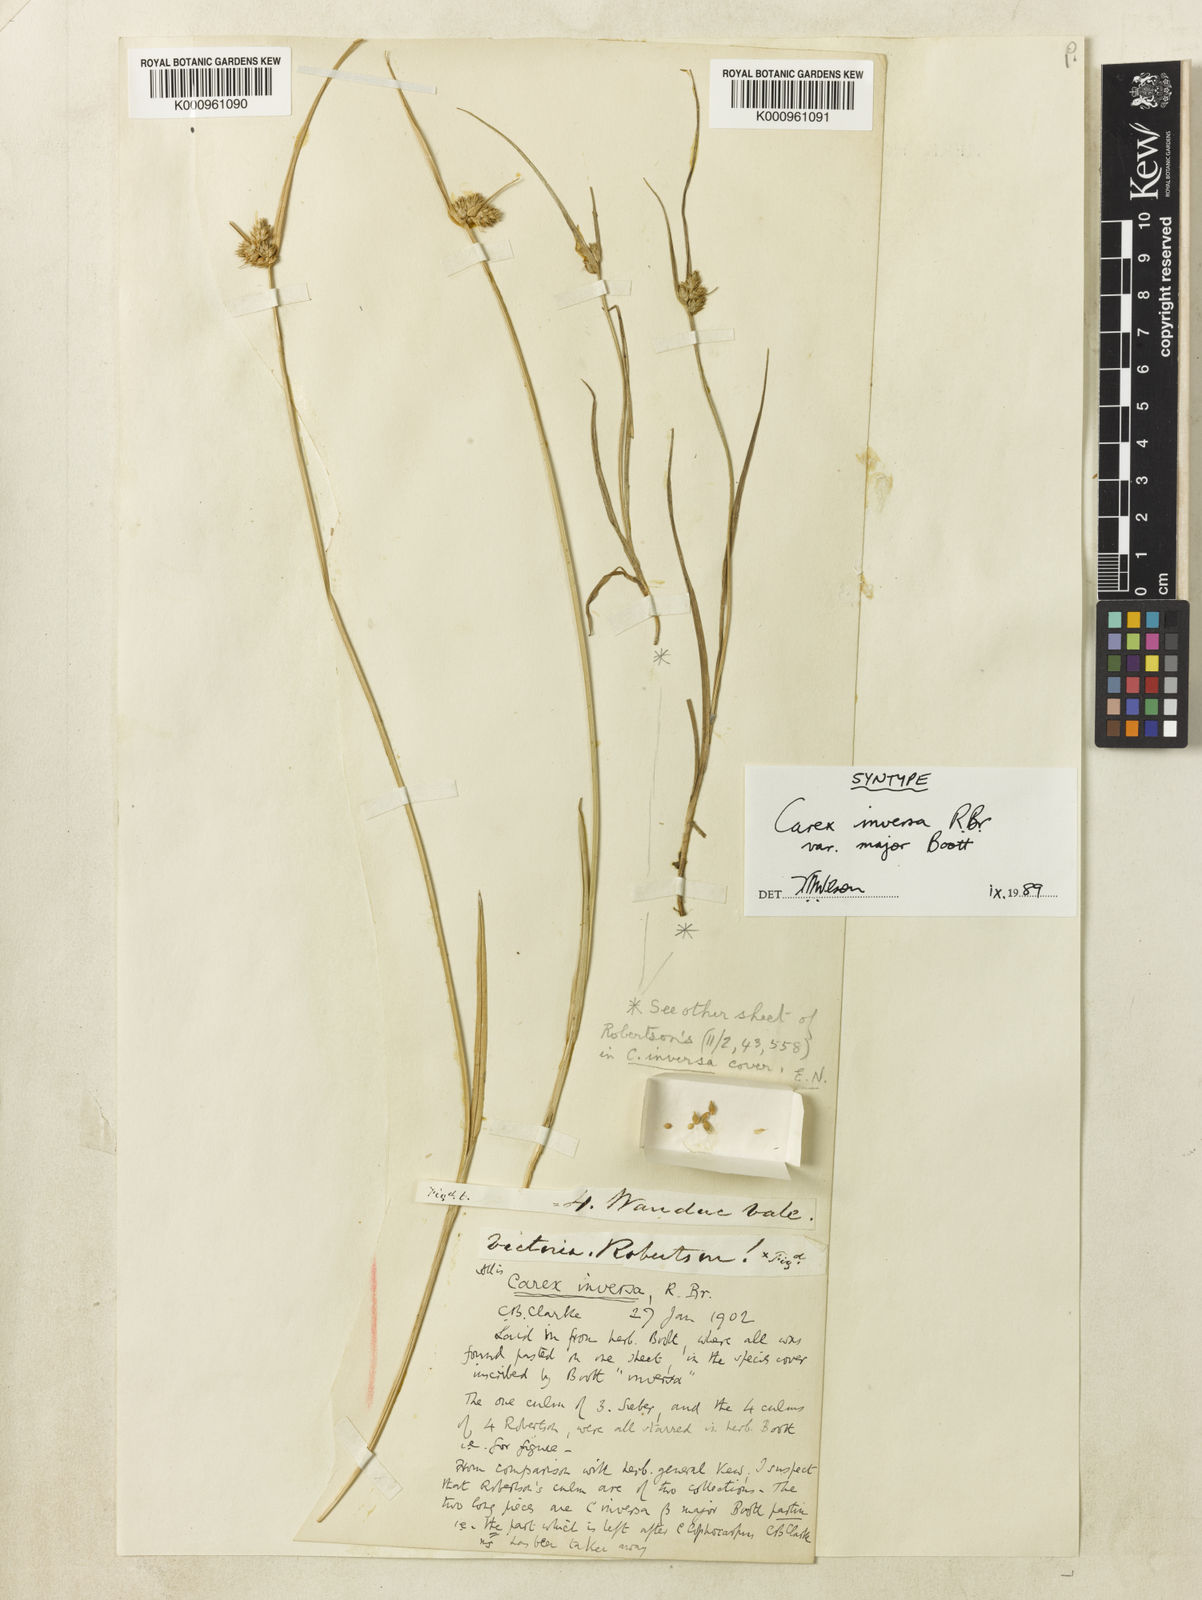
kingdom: Plantae
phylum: Tracheophyta
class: Liliopsida
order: Poales
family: Cyperaceae
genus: Carex
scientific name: Carex inversa
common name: Knob sedge
